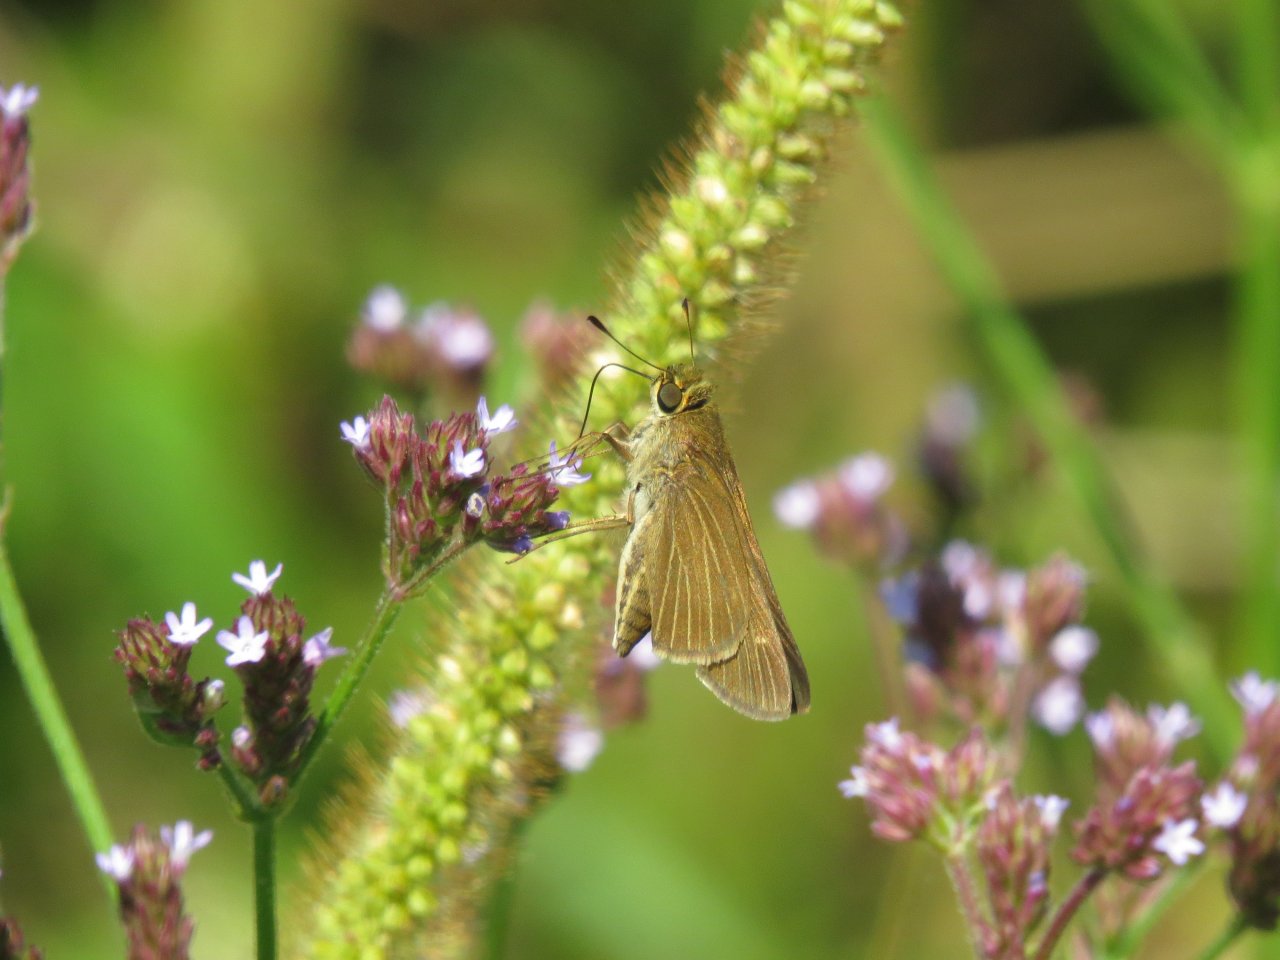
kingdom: Animalia
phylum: Arthropoda
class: Insecta
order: Lepidoptera
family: Hesperiidae
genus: Panoquina
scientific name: Panoquina ocola
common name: Ocola Skipper
